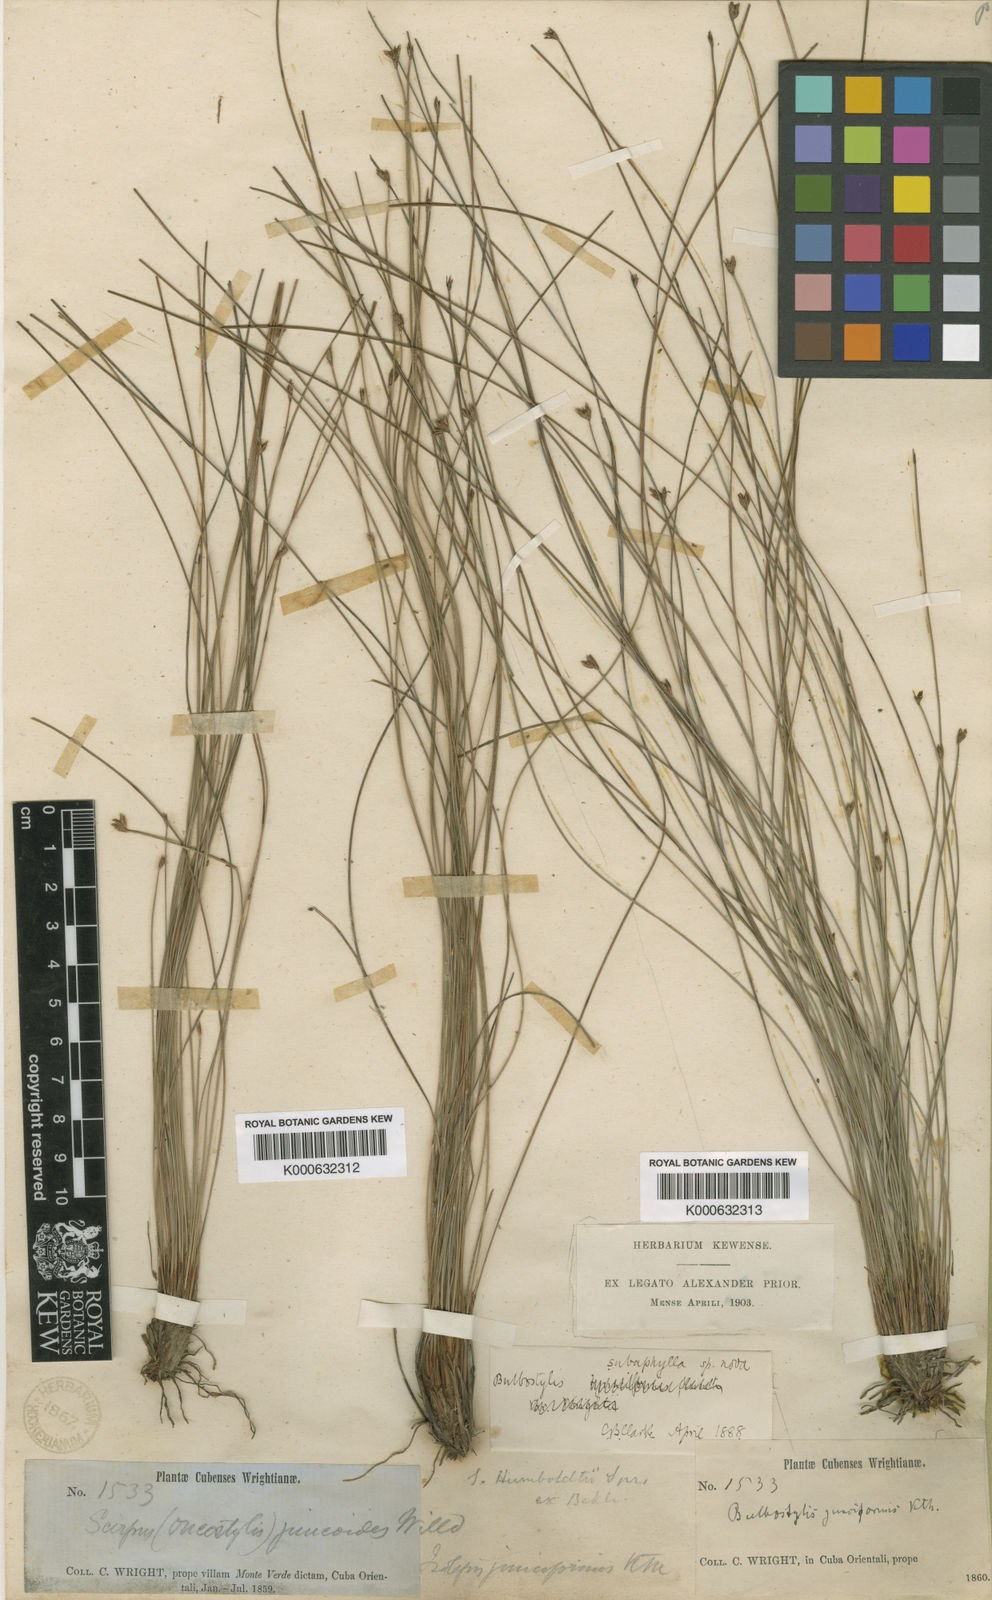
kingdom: Plantae
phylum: Tracheophyta
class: Liliopsida
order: Poales
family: Cyperaceae
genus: Bulbostylis
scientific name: Bulbostylis subaphylla
